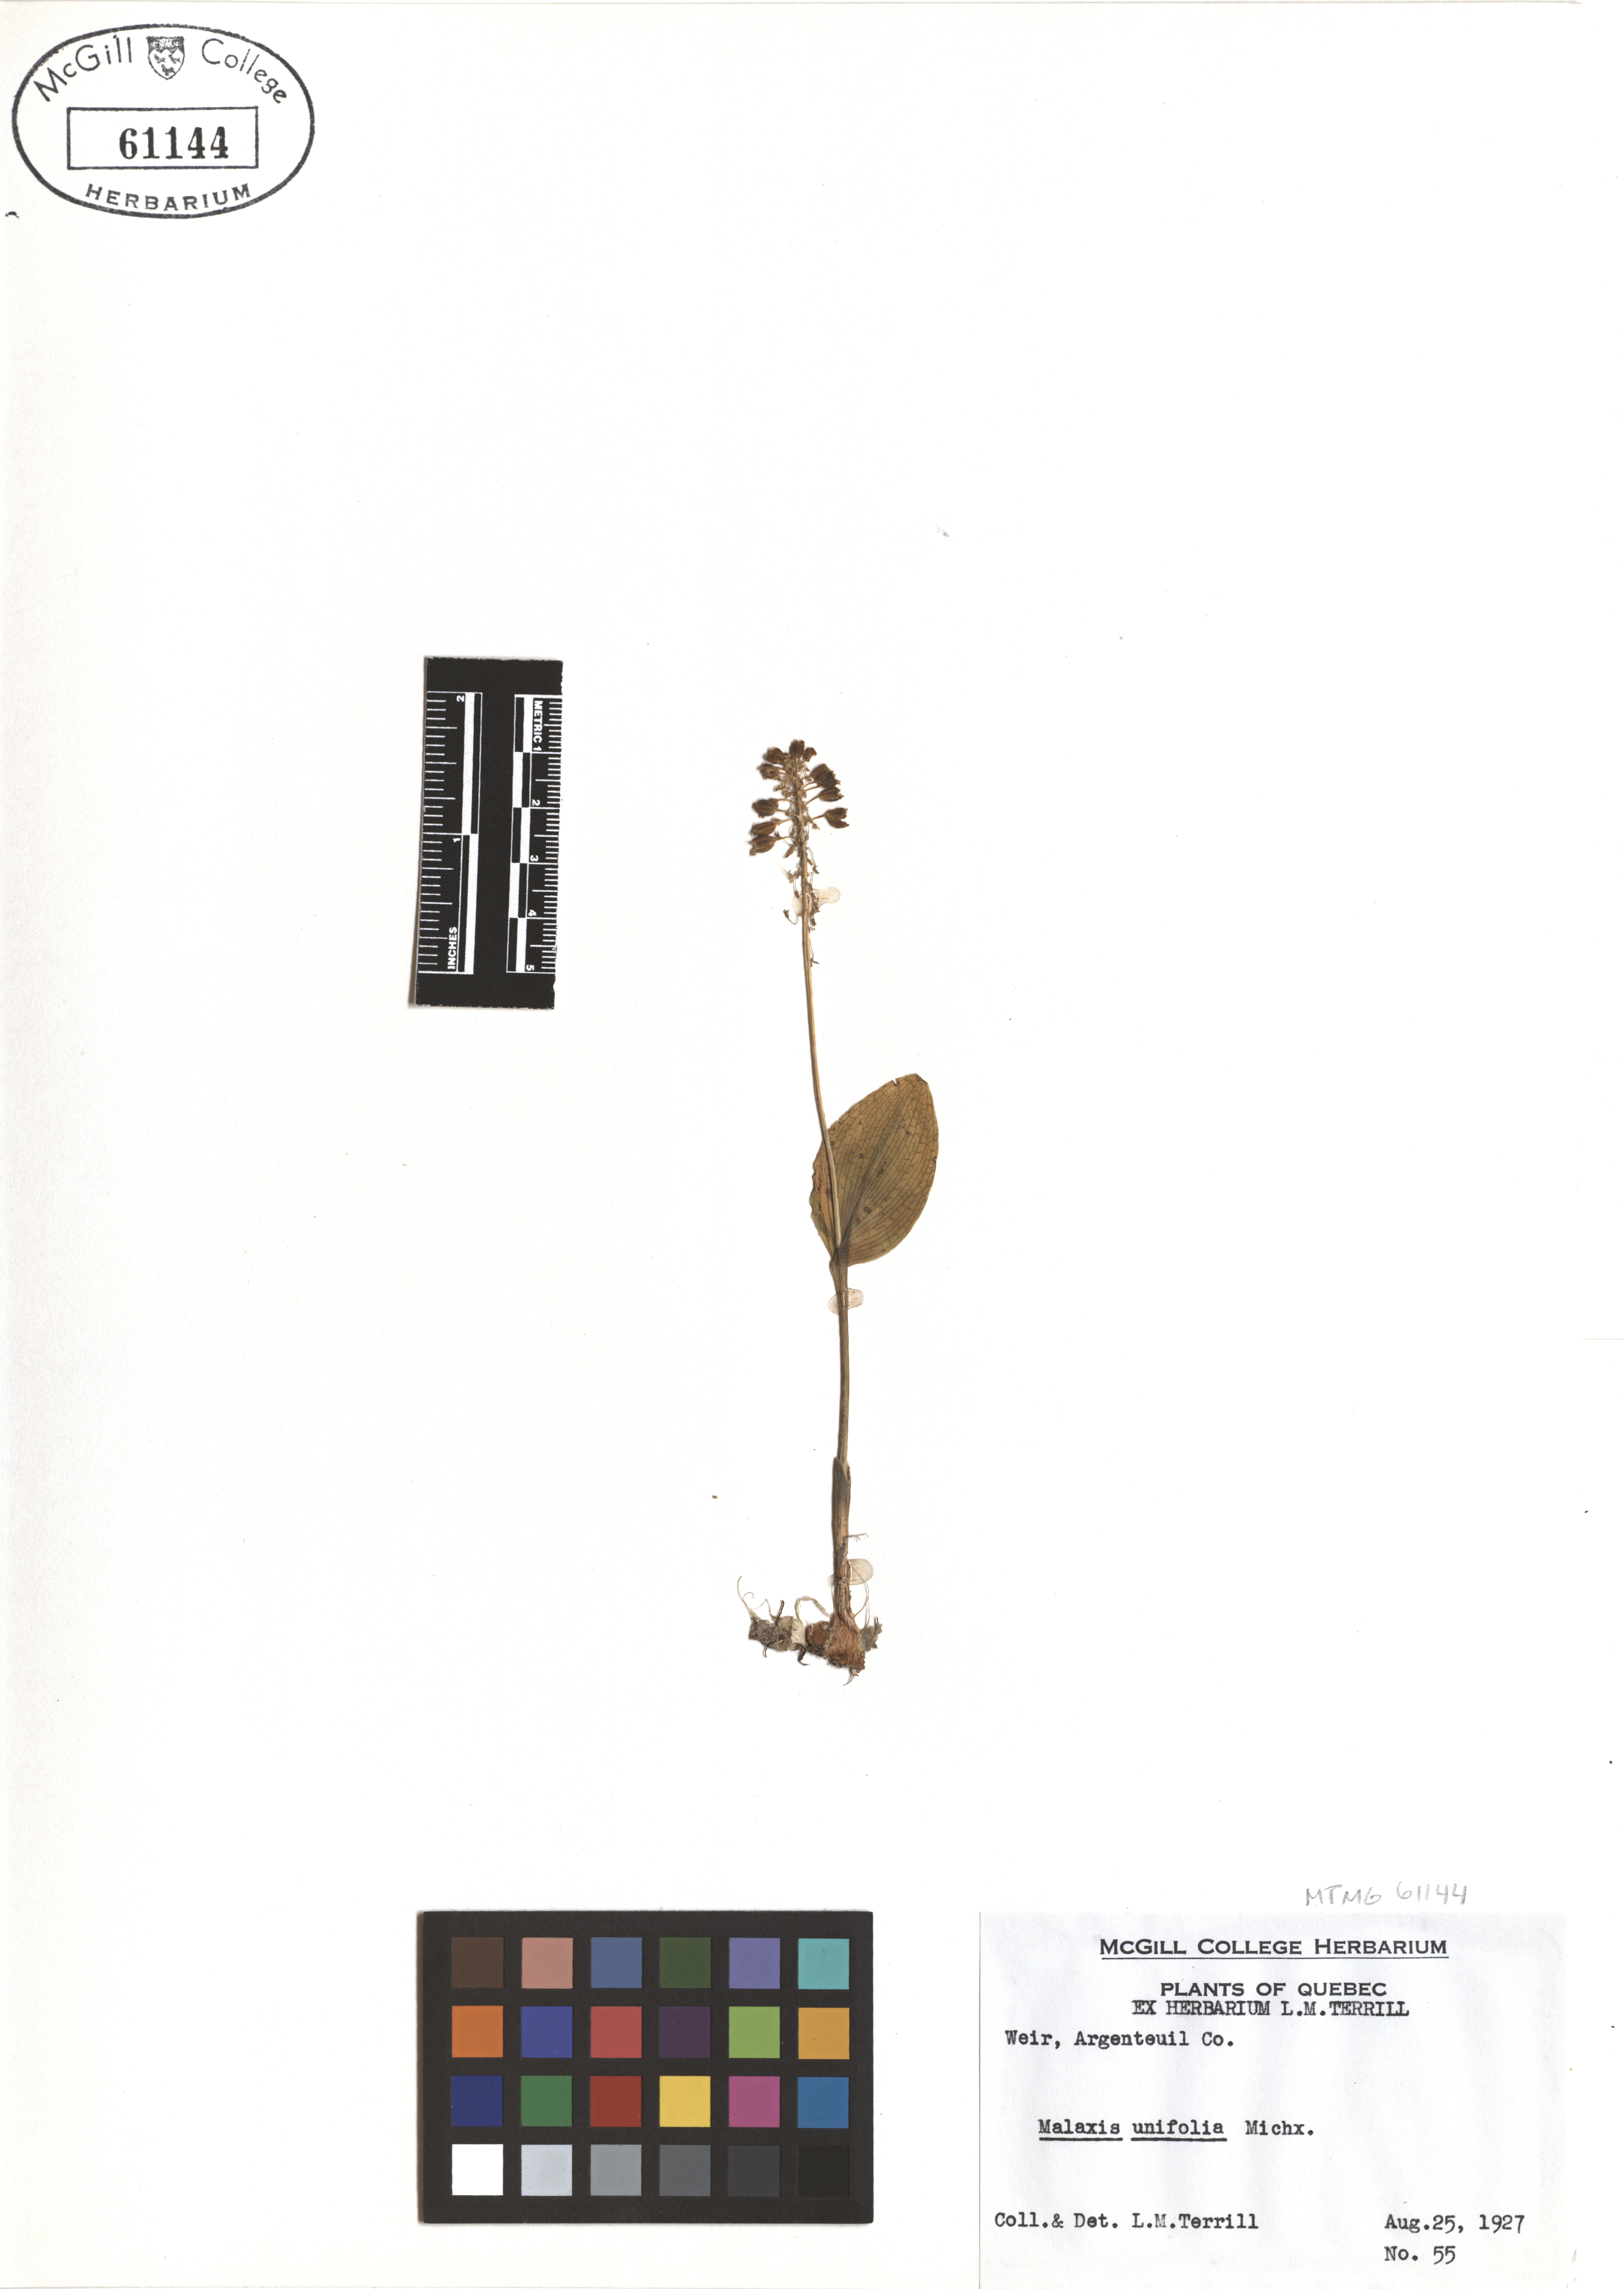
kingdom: Plantae
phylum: Tracheophyta
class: Liliopsida
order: Asparagales
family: Orchidaceae
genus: Malaxis
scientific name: Malaxis unifolia
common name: Green adder's-mouth
